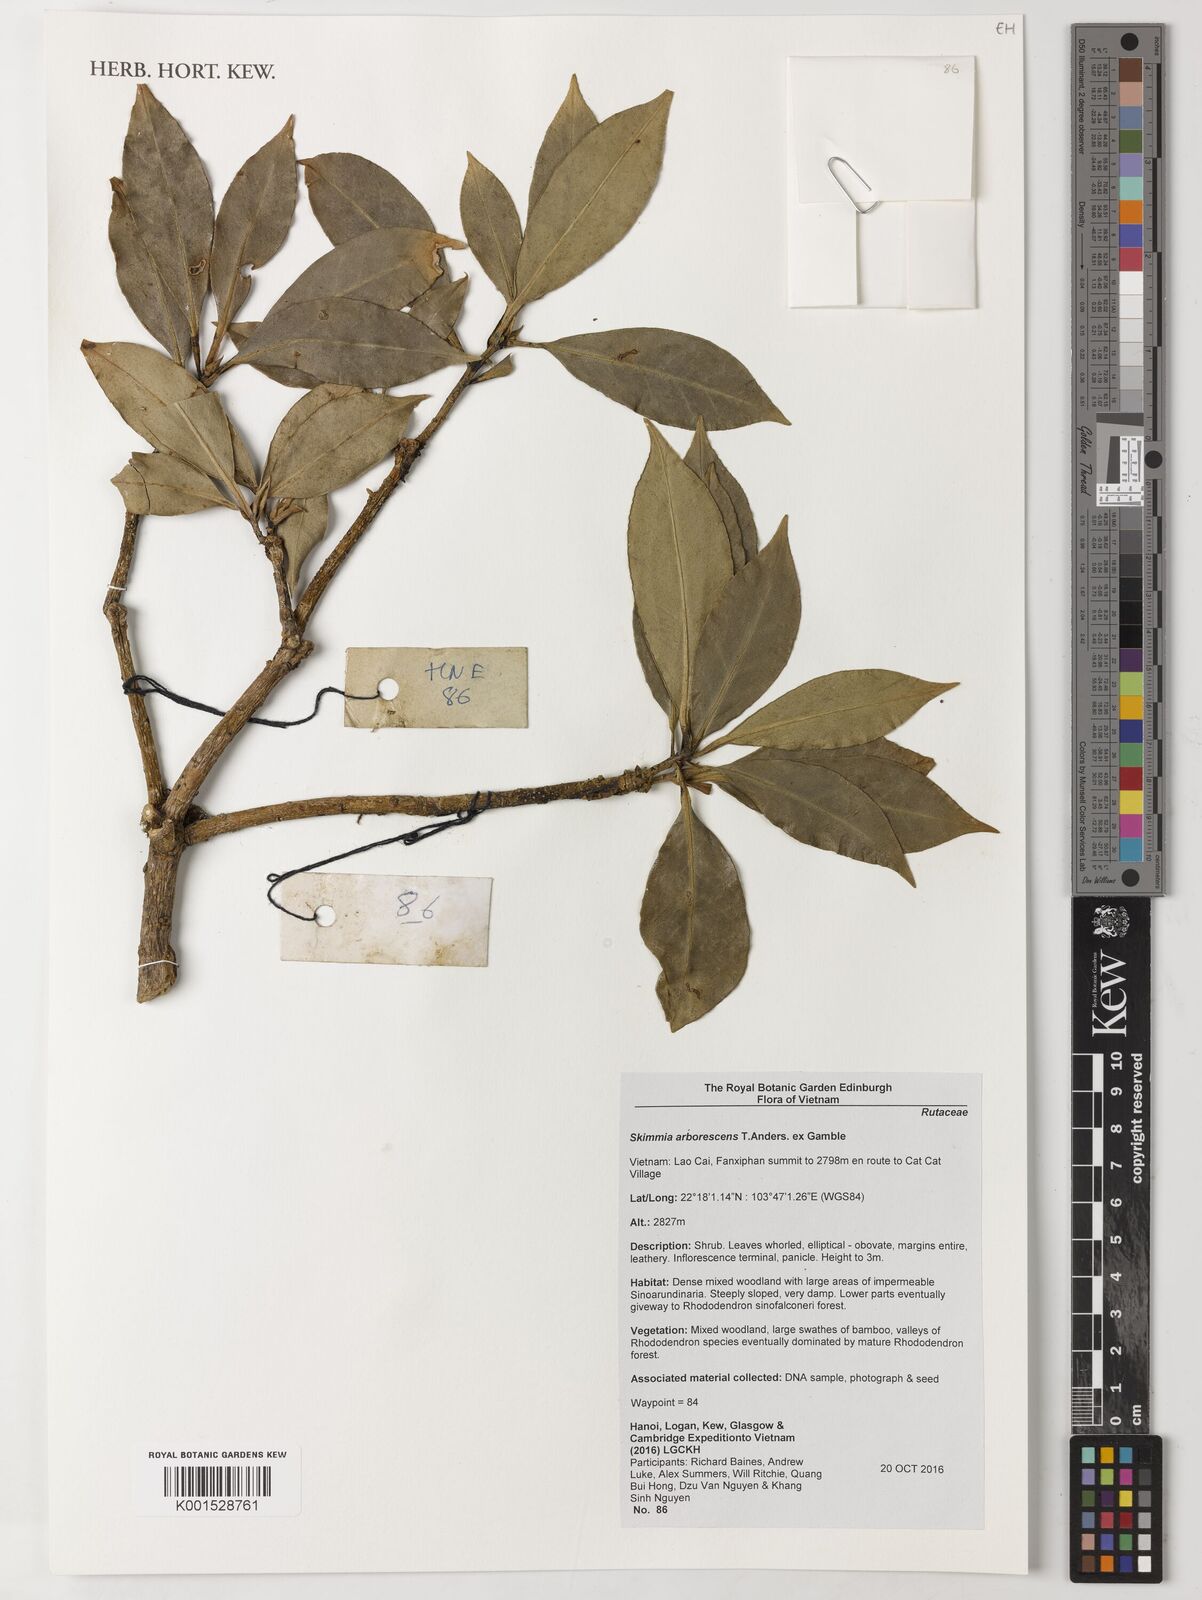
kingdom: Plantae
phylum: Tracheophyta
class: Magnoliopsida
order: Sapindales
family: Rutaceae
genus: Skimmia
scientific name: Skimmia arborescens
